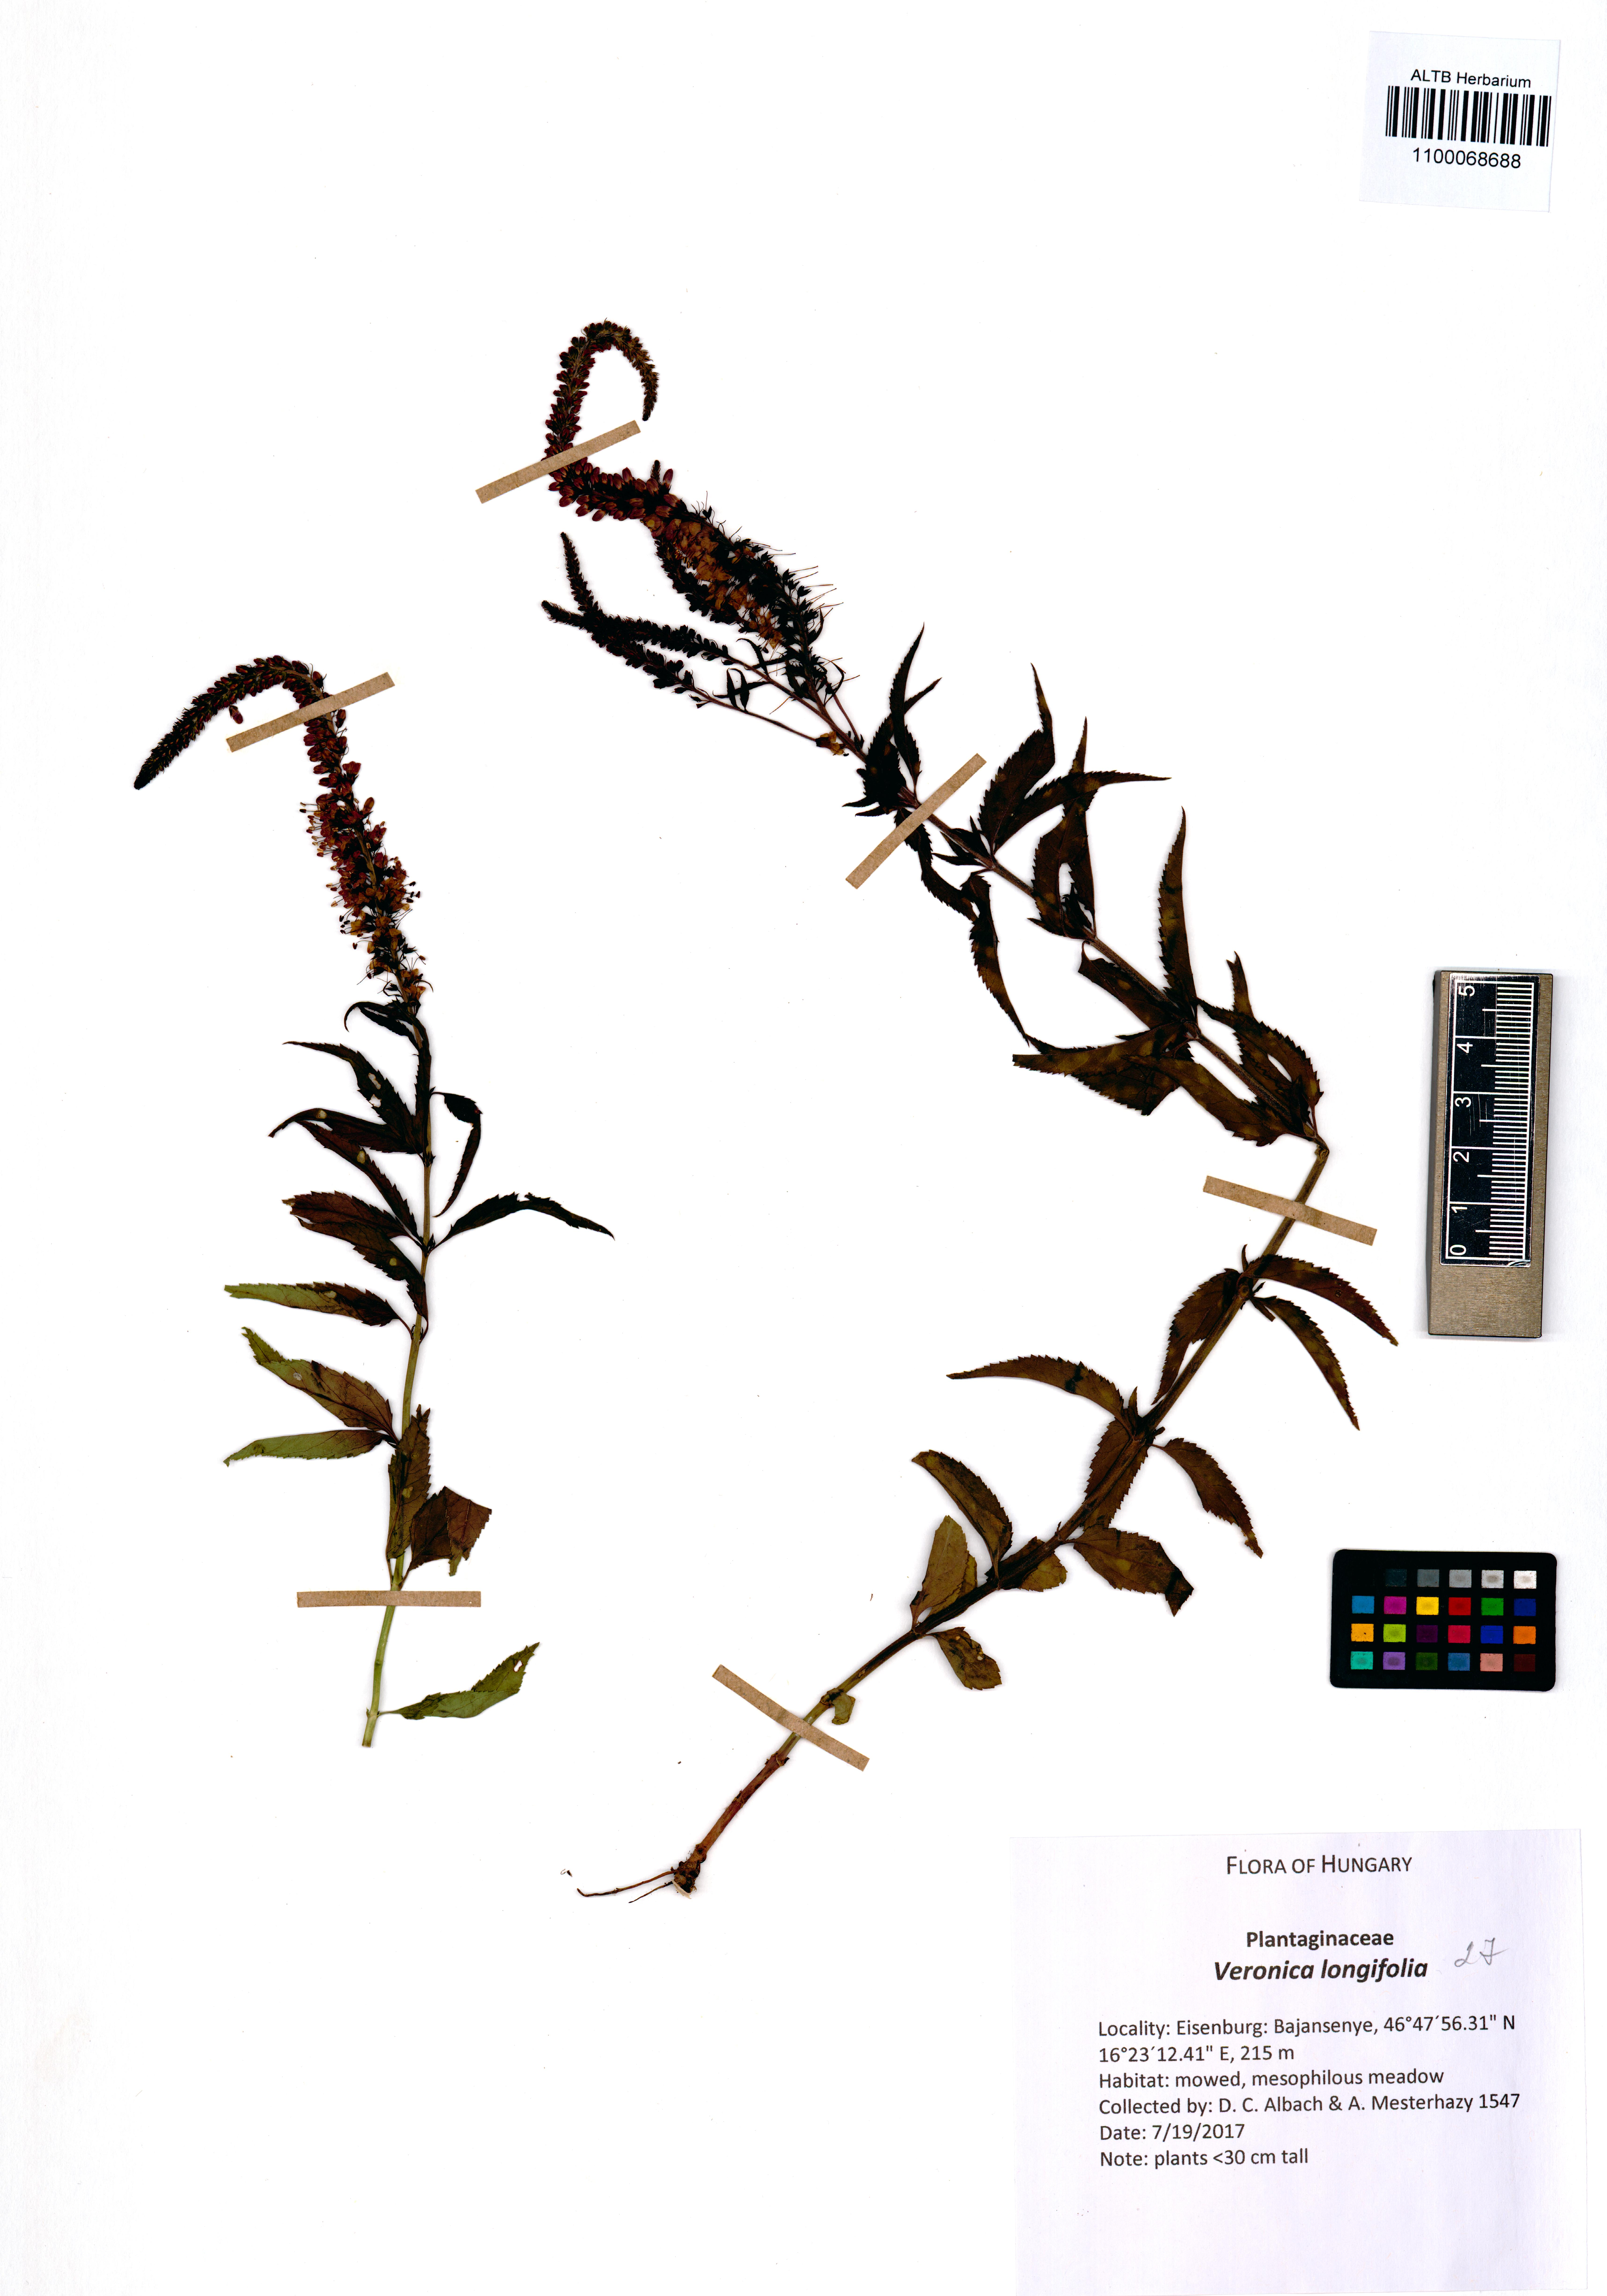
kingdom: Plantae
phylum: Tracheophyta
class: Magnoliopsida
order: Lamiales
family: Plantaginaceae
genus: Veronica
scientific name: Veronica longifolia
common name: Garden speedwell
